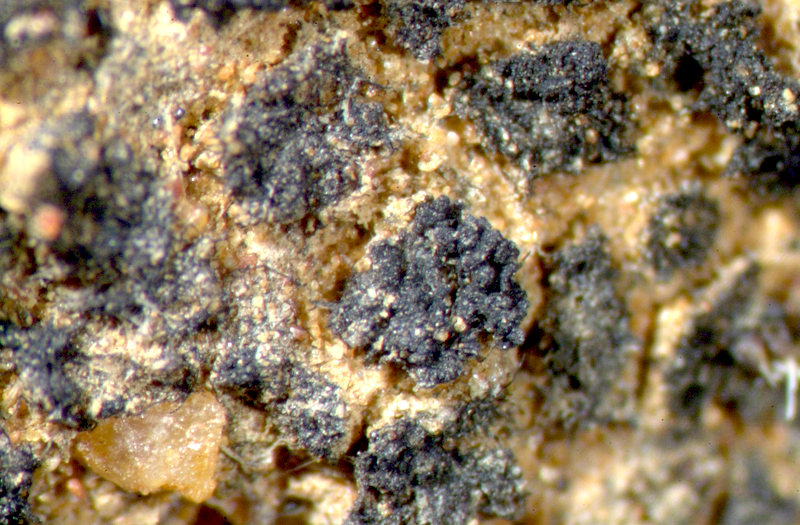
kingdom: Fungi
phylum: Ascomycota
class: Lecanoromycetes
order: Peltigerales
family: Collemataceae
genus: Enchylium
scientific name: Enchylium coccophorum
